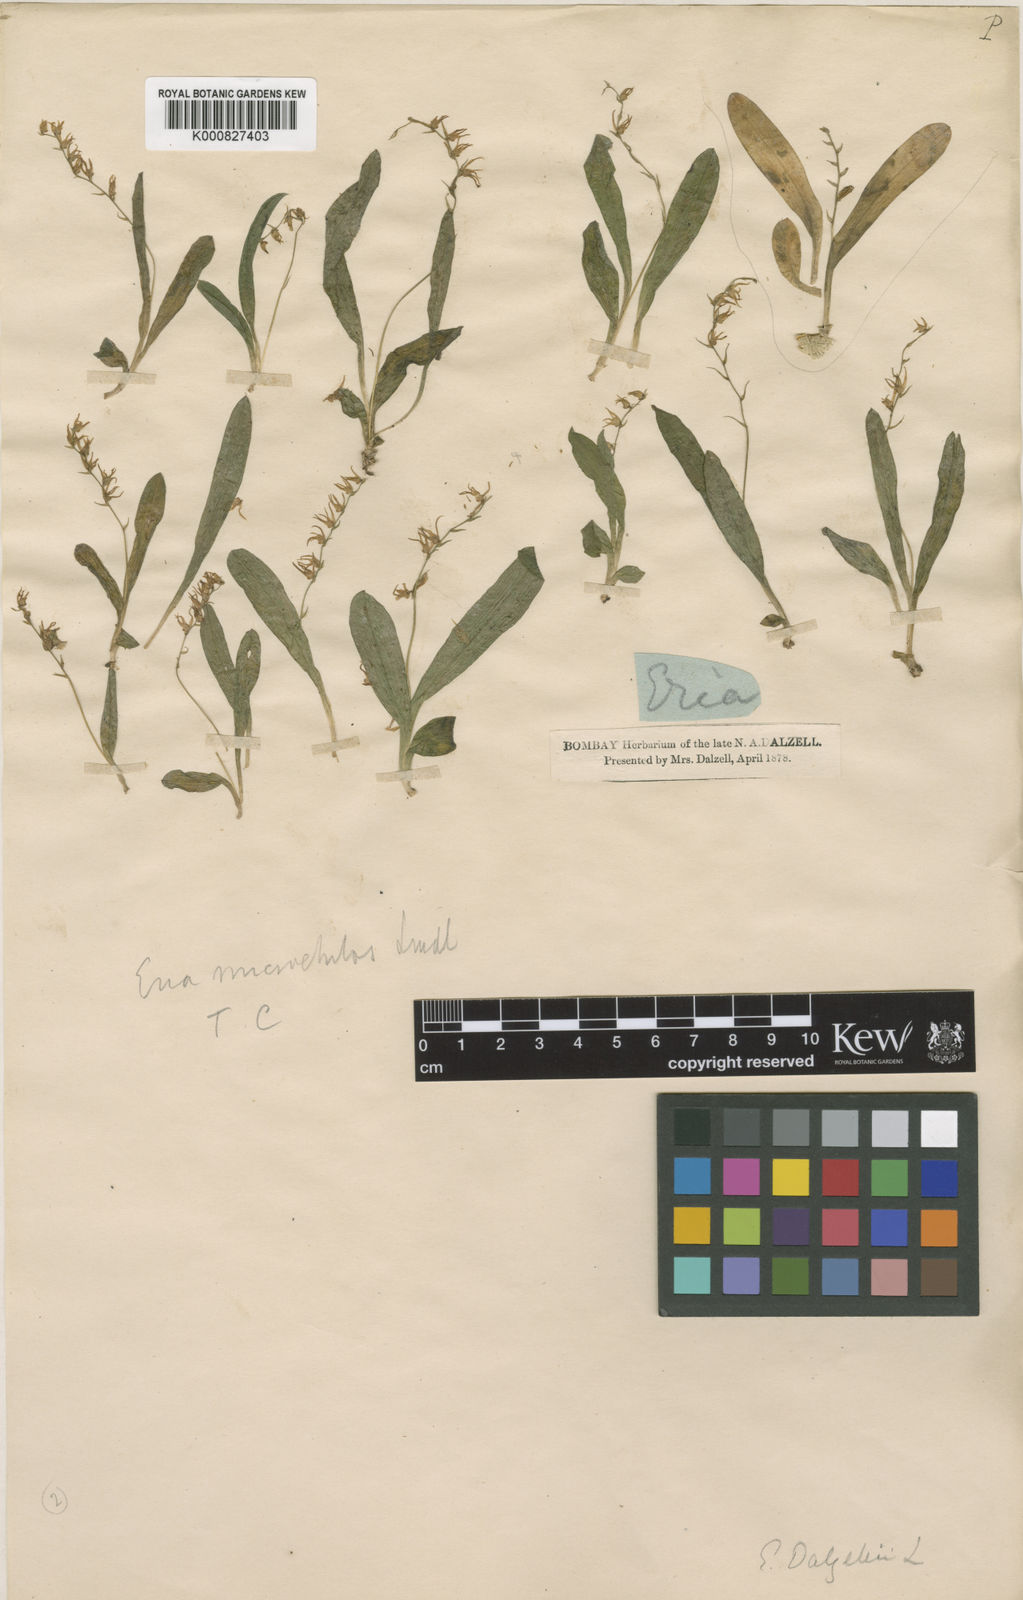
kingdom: Plantae
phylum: Tracheophyta
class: Liliopsida
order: Asparagales
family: Orchidaceae
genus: Porpax
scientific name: Porpax filiformis
